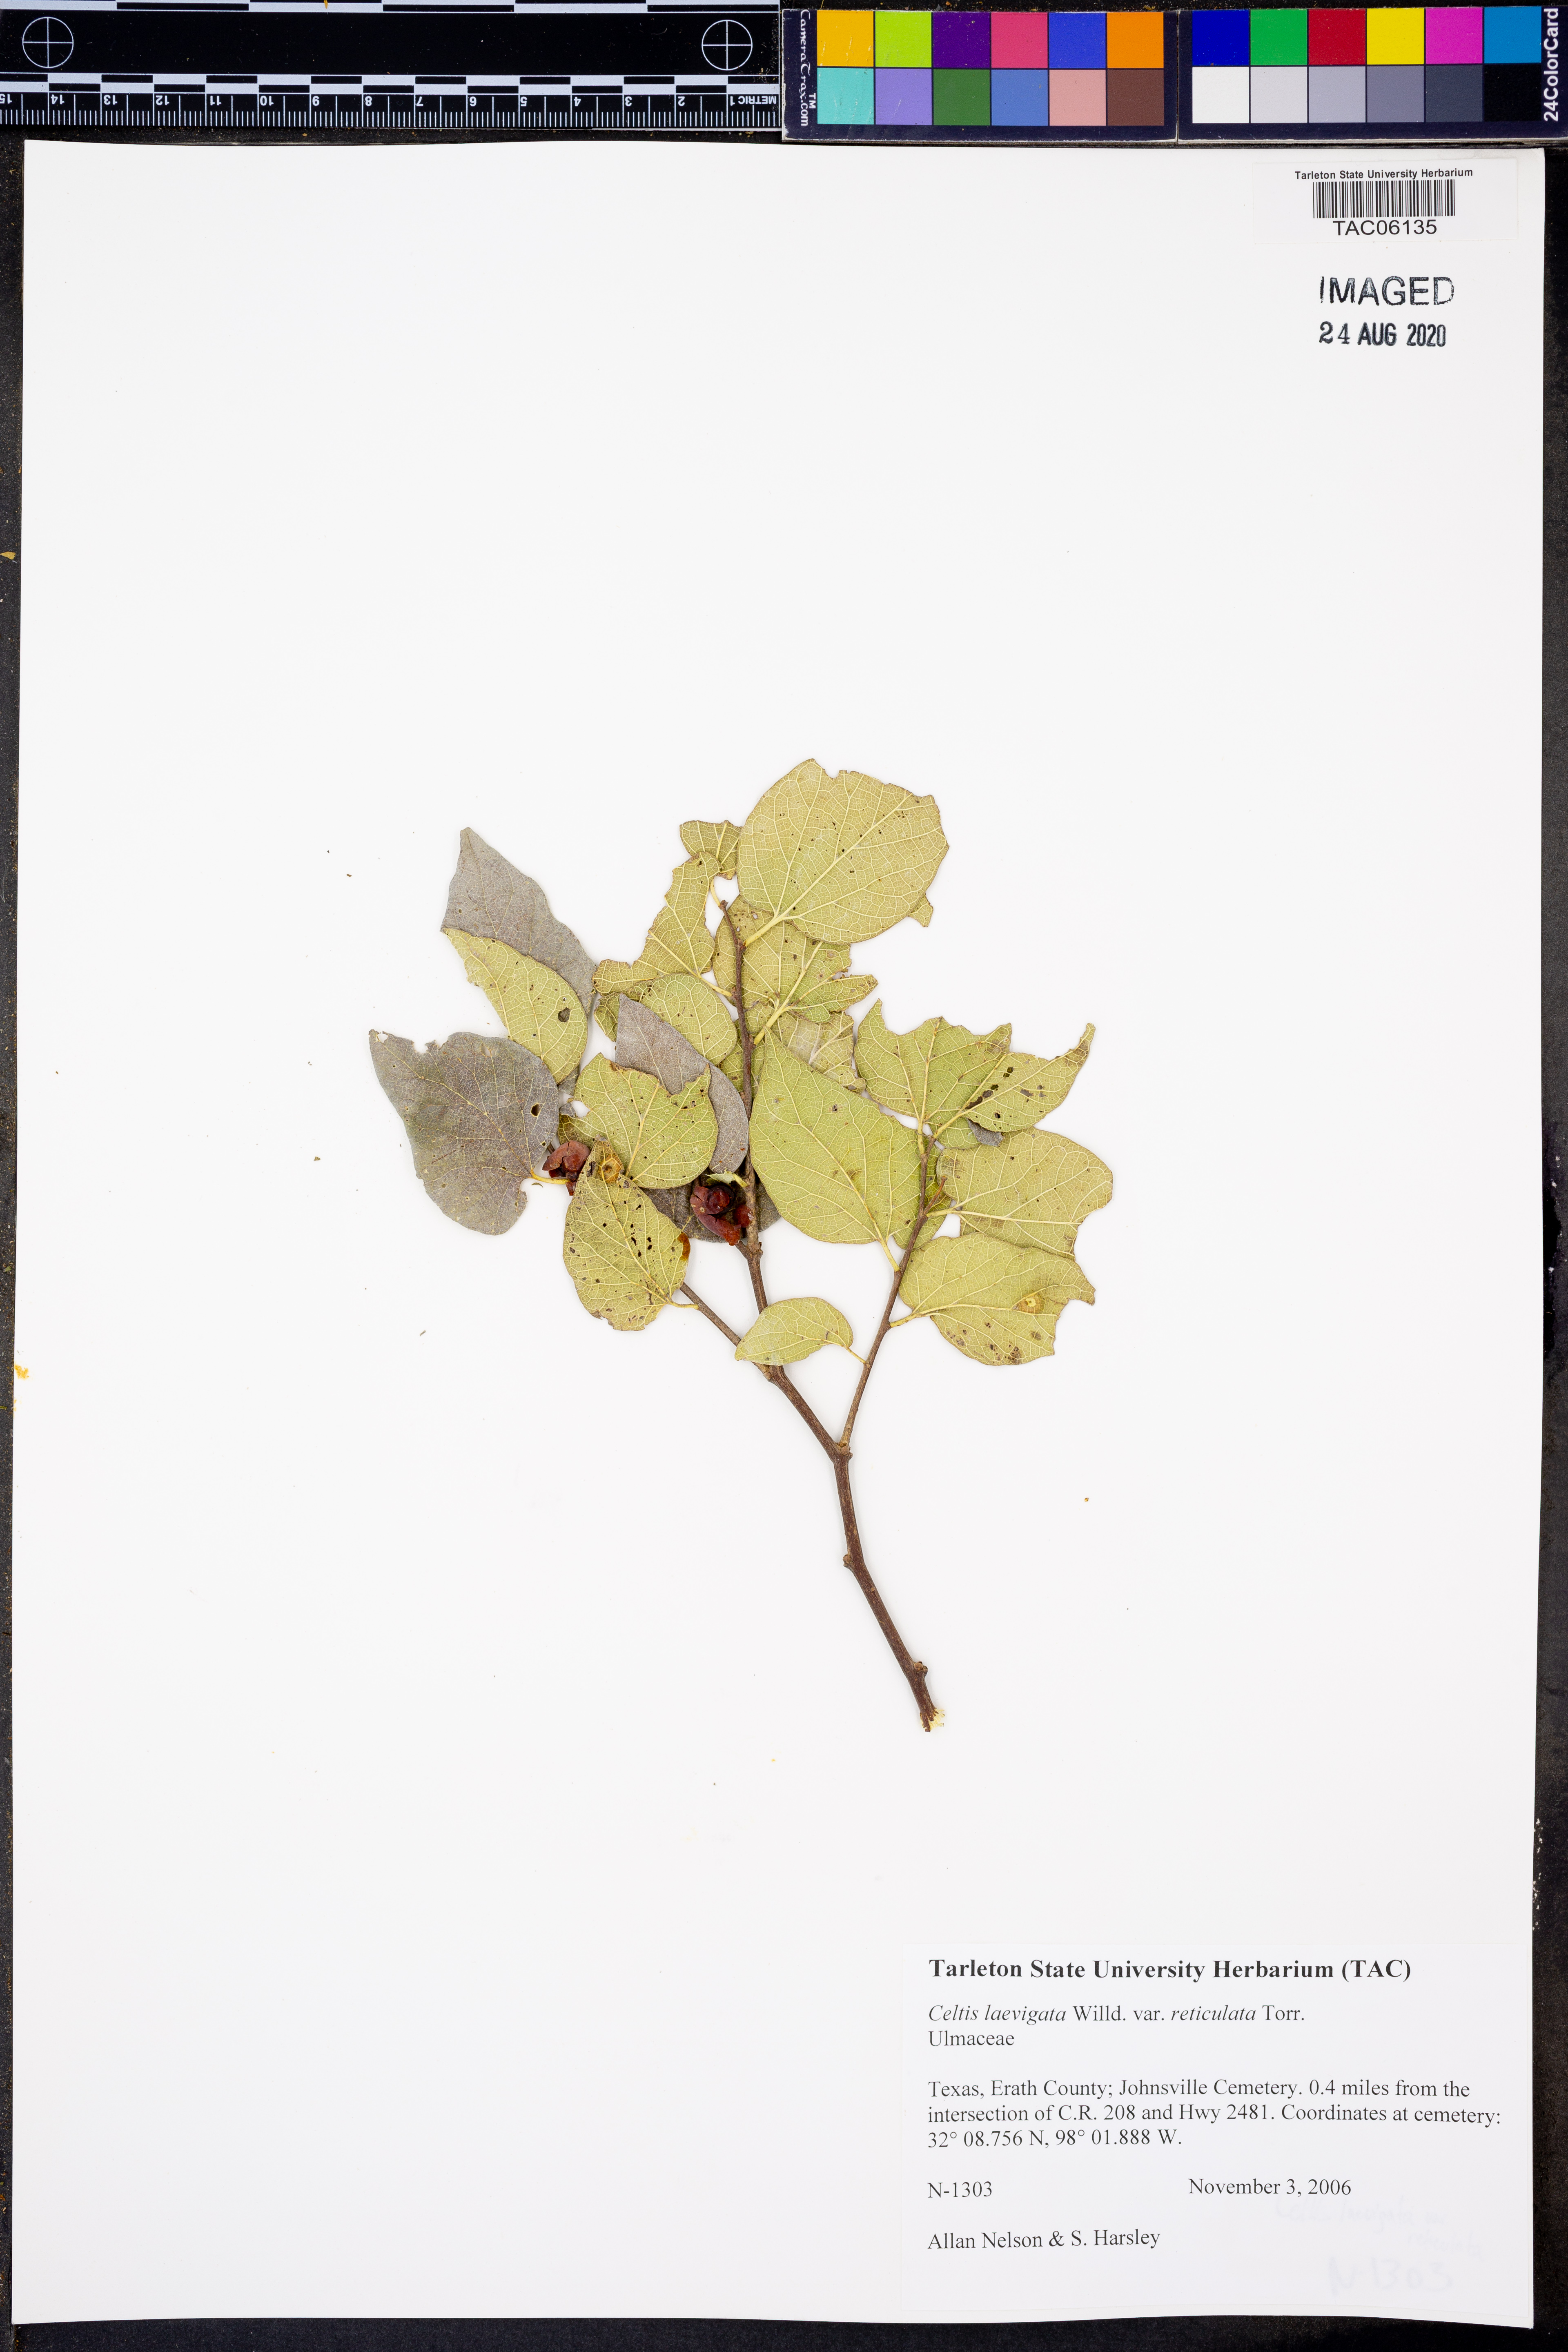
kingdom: Plantae
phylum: Tracheophyta
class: Magnoliopsida
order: Rosales
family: Cannabaceae
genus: Celtis
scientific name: Celtis reticulata
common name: Netleaf hackberry
